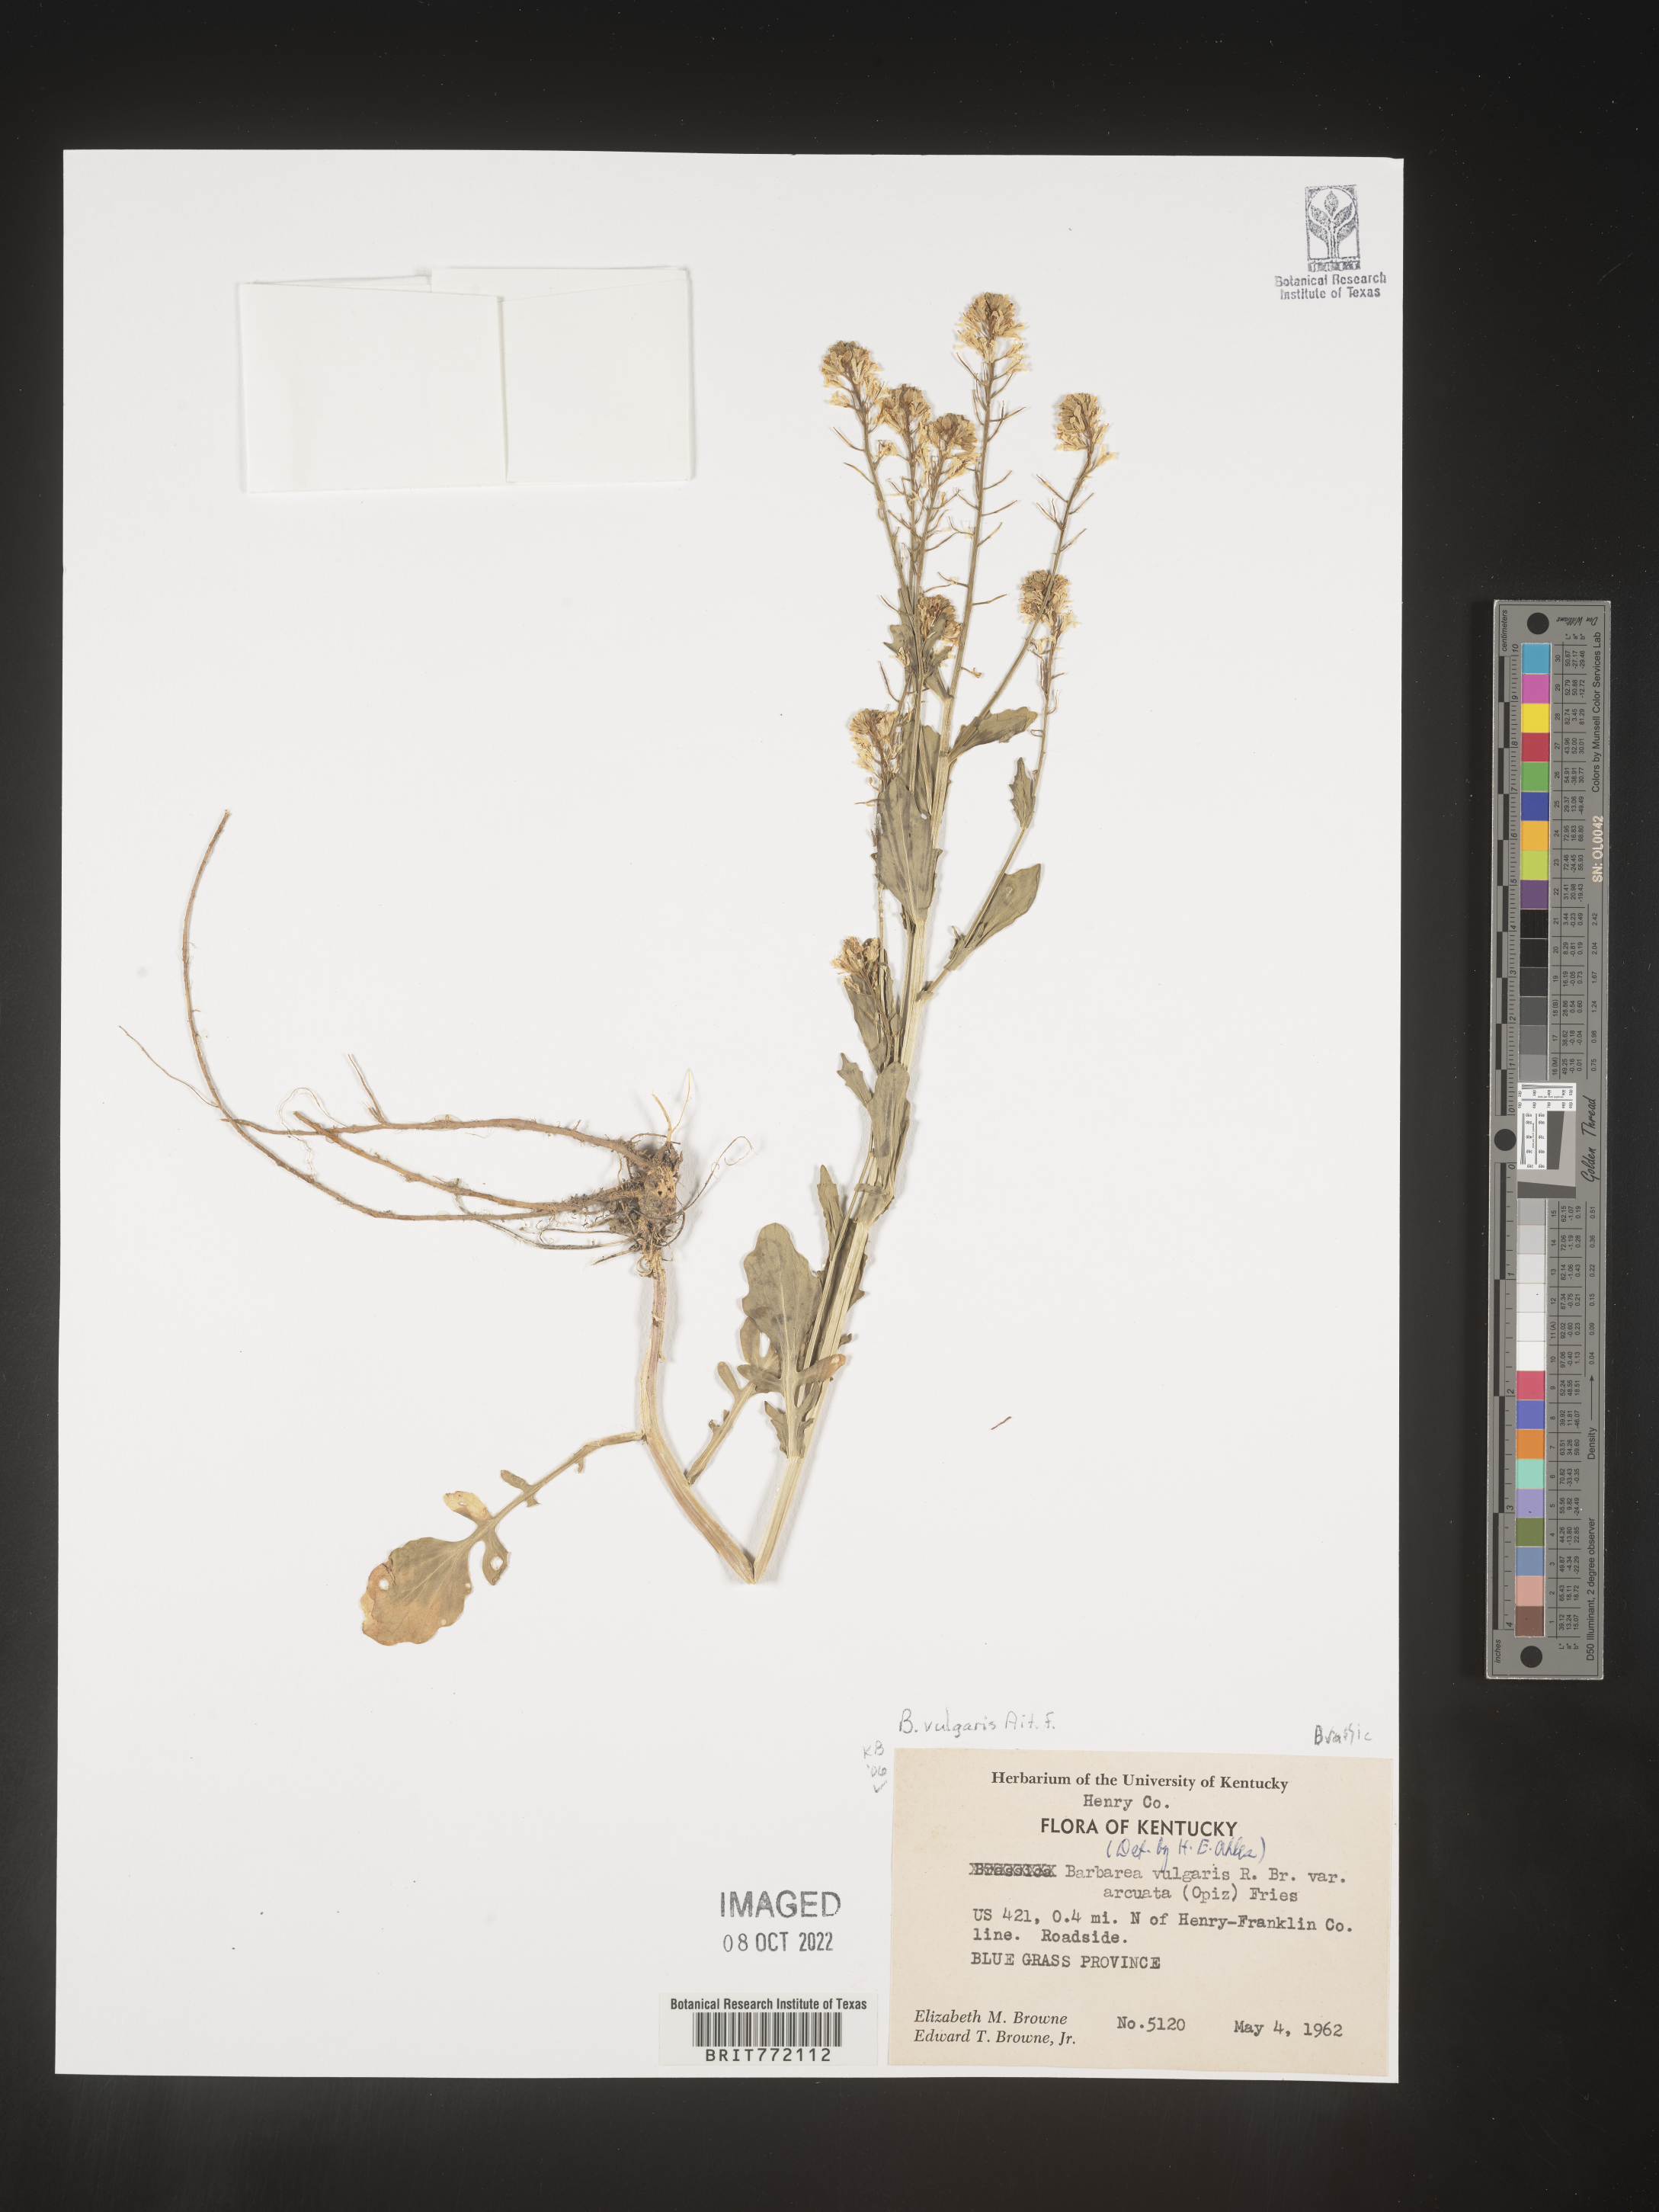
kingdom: Plantae
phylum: Tracheophyta
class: Magnoliopsida
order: Brassicales
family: Brassicaceae
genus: Barbarea
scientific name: Barbarea vulgaris
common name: Cressy-greens
